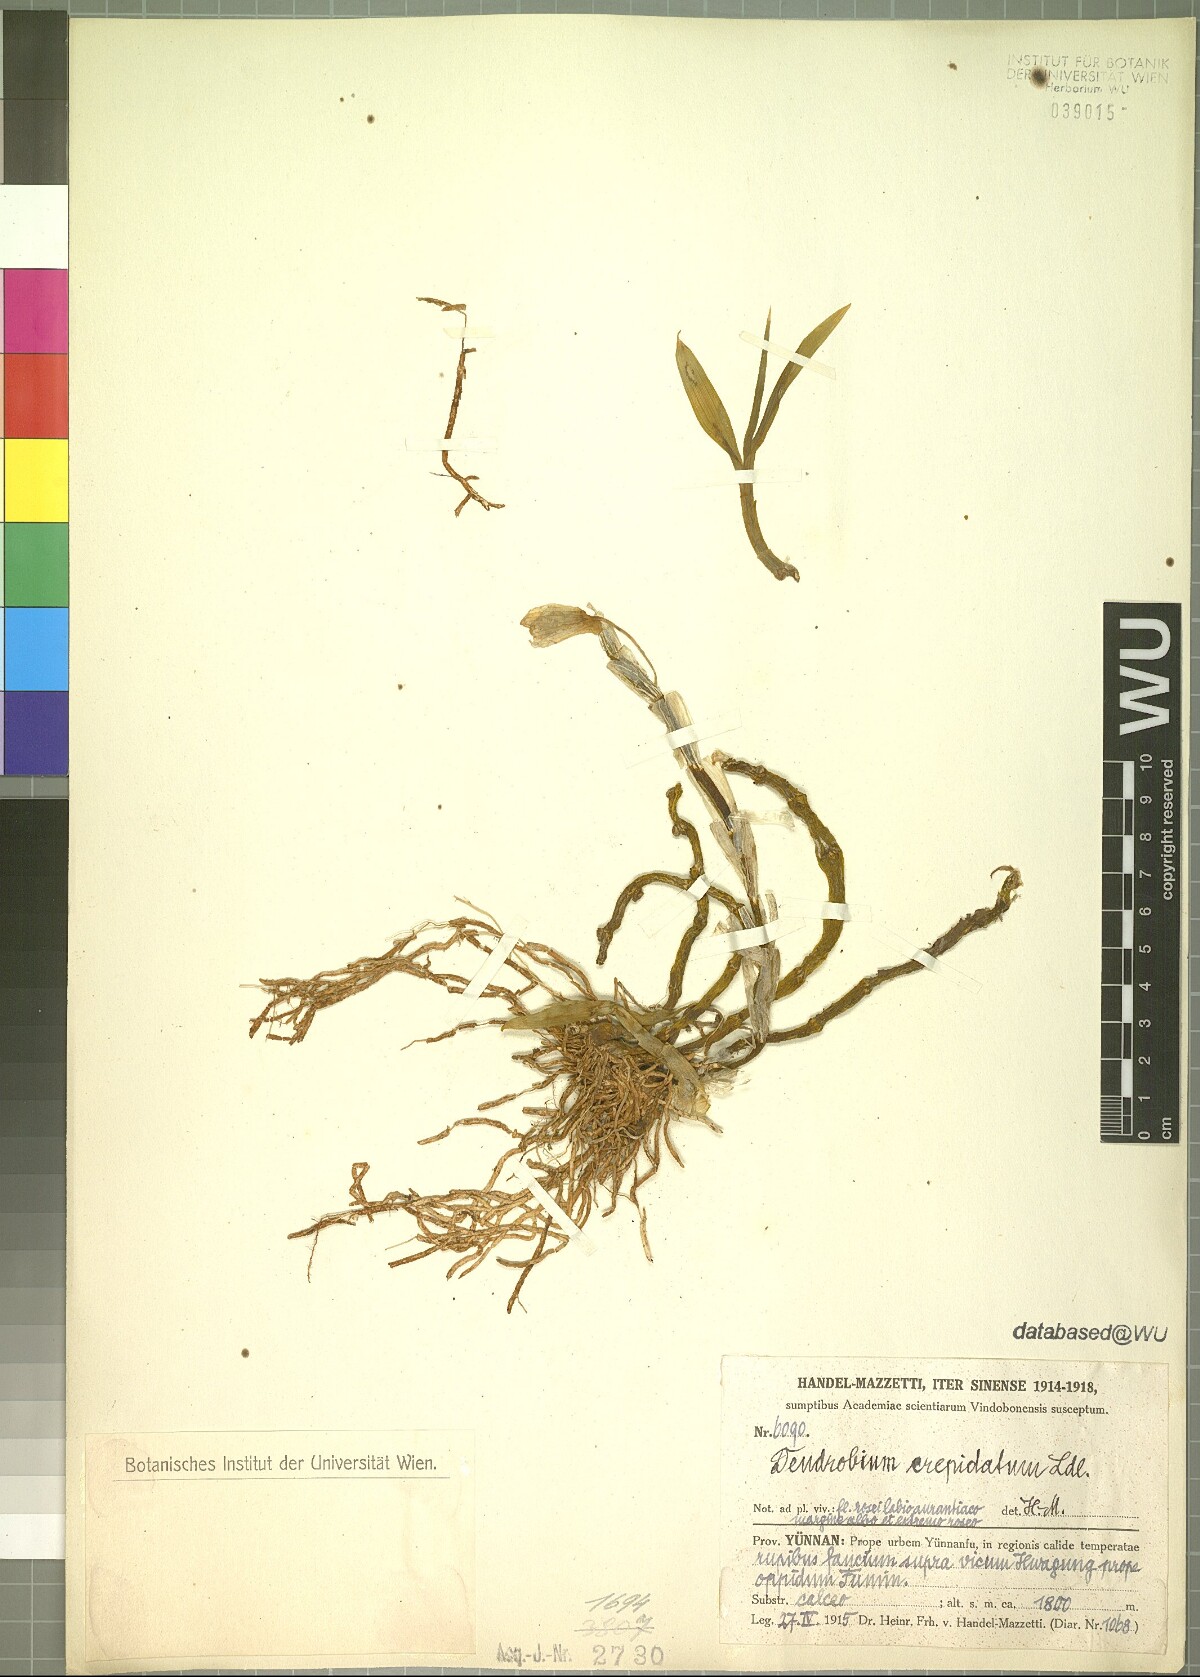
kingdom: Plantae
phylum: Tracheophyta
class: Liliopsida
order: Asparagales
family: Orchidaceae
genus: Dendrobium
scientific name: Dendrobium crepidatum
